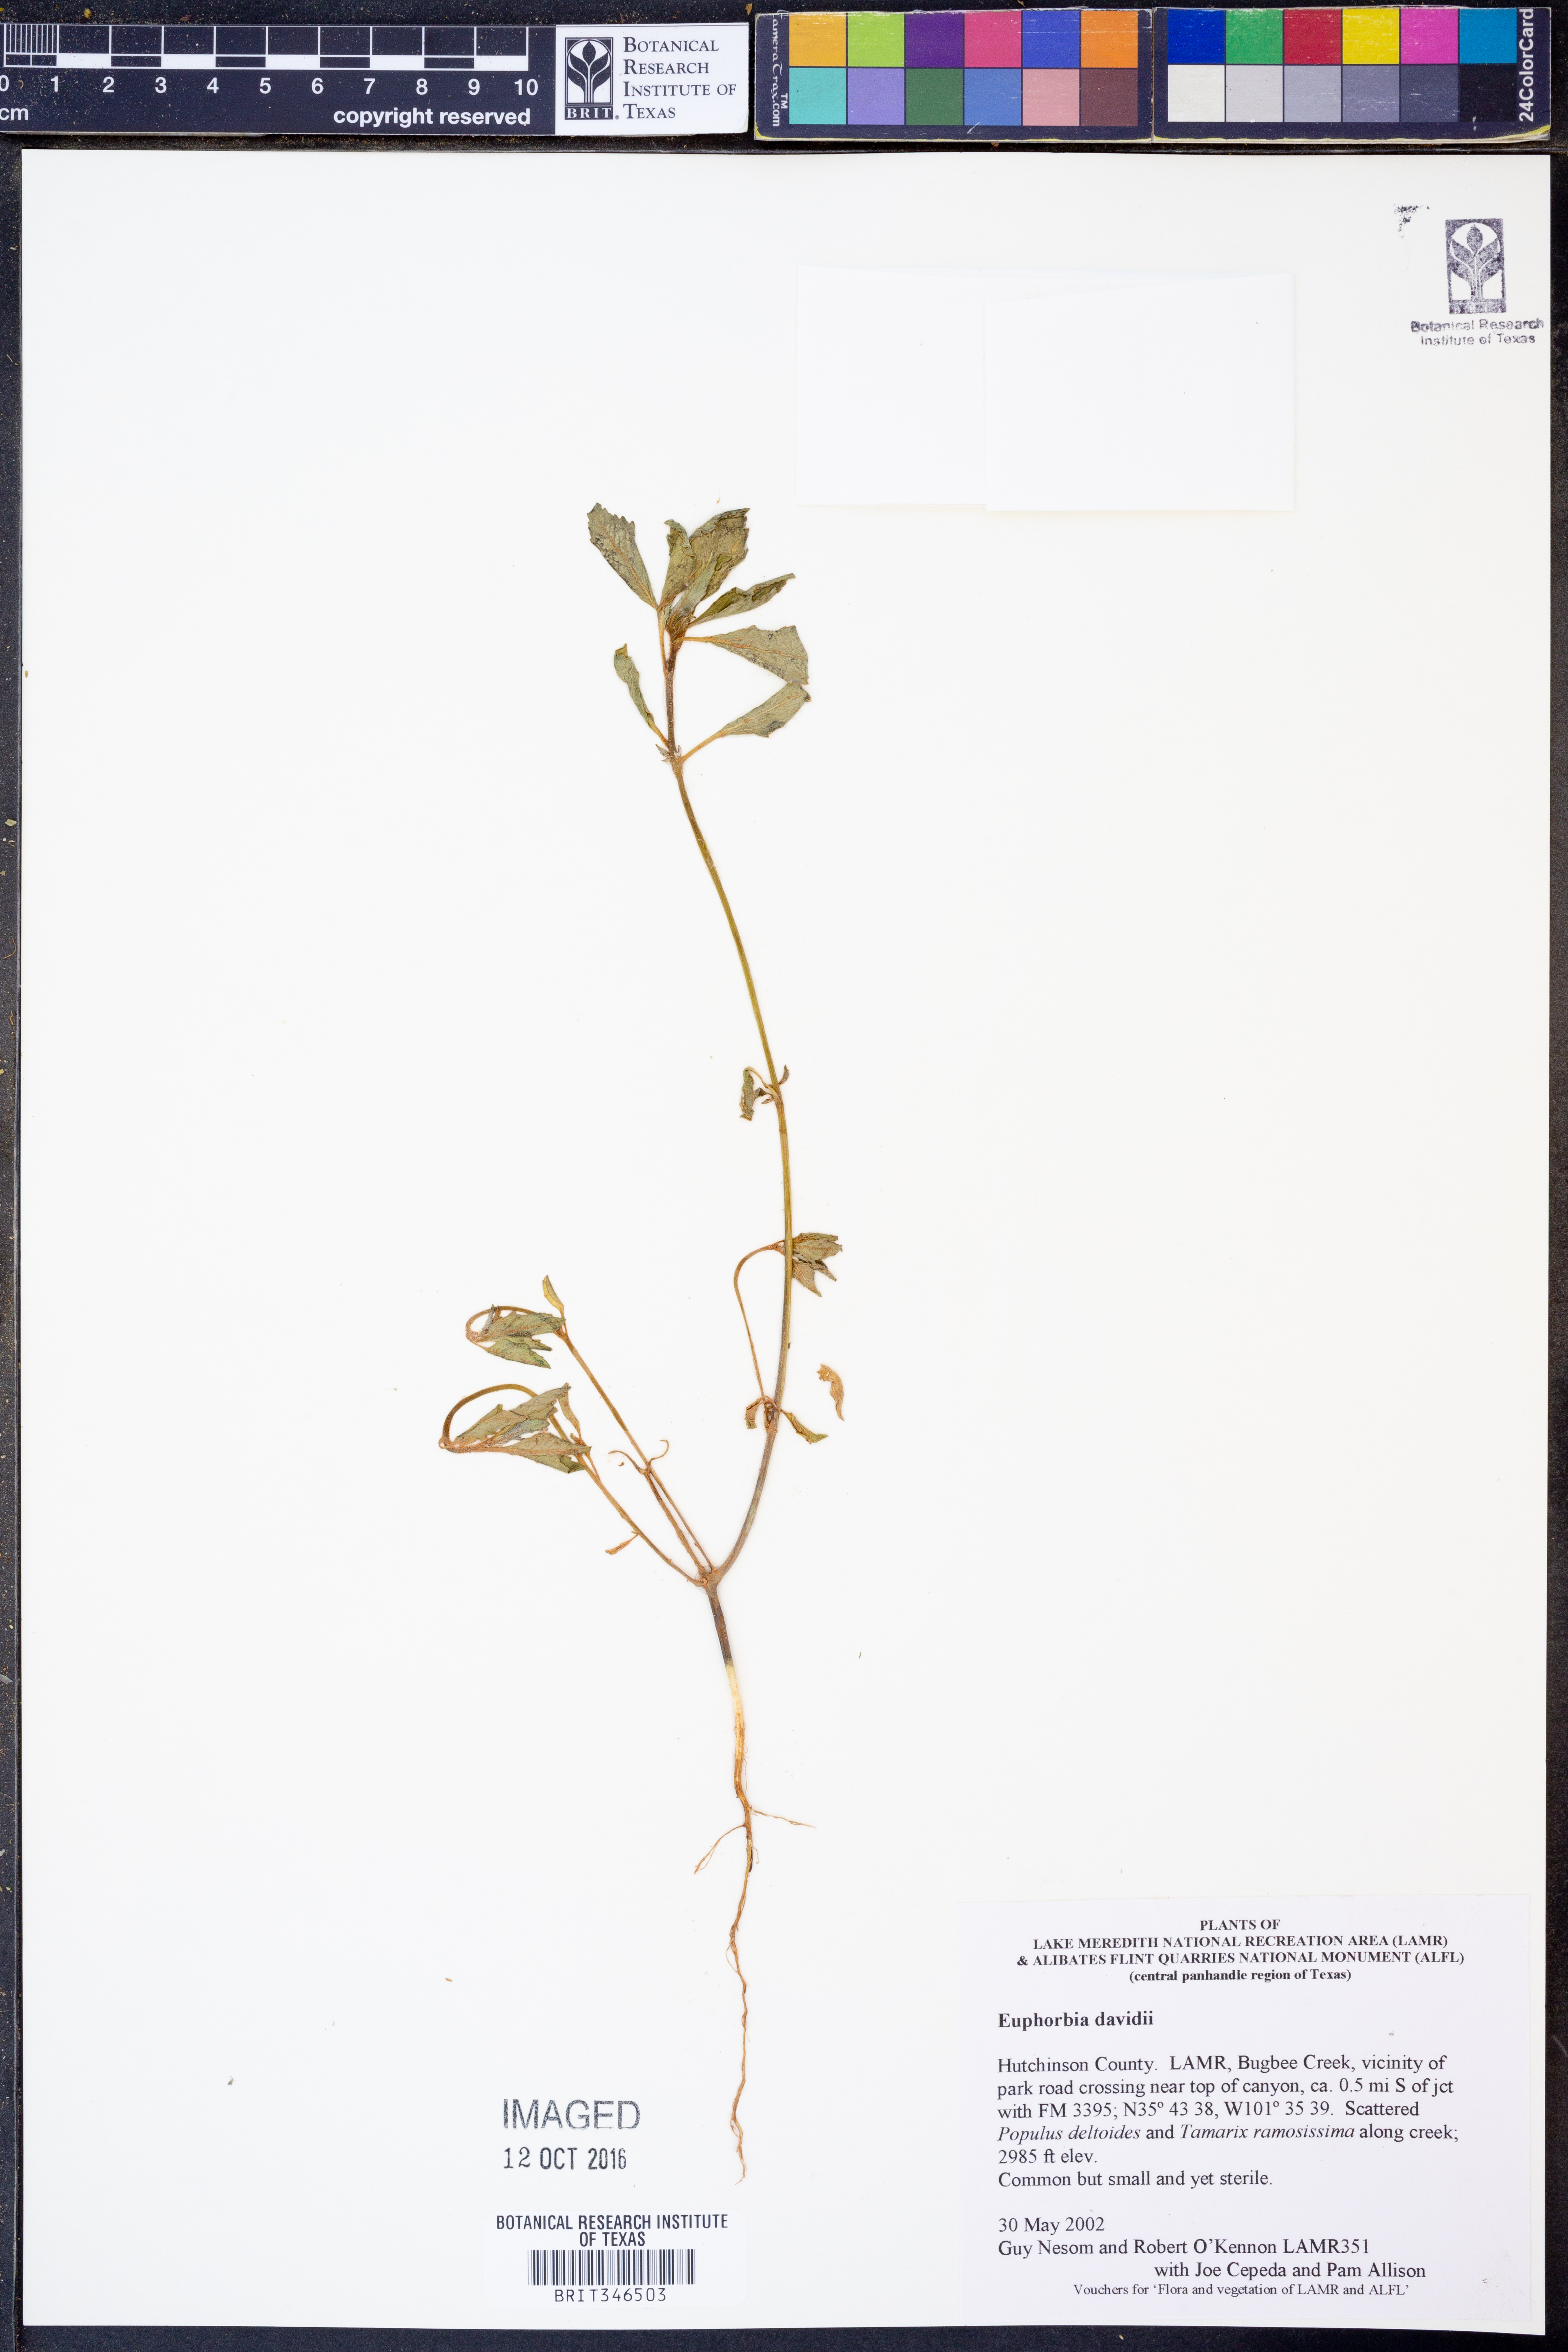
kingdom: Plantae
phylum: Tracheophyta
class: Magnoliopsida
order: Malpighiales
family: Euphorbiaceae
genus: Euphorbia
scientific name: Euphorbia davidii
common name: David's spurge
